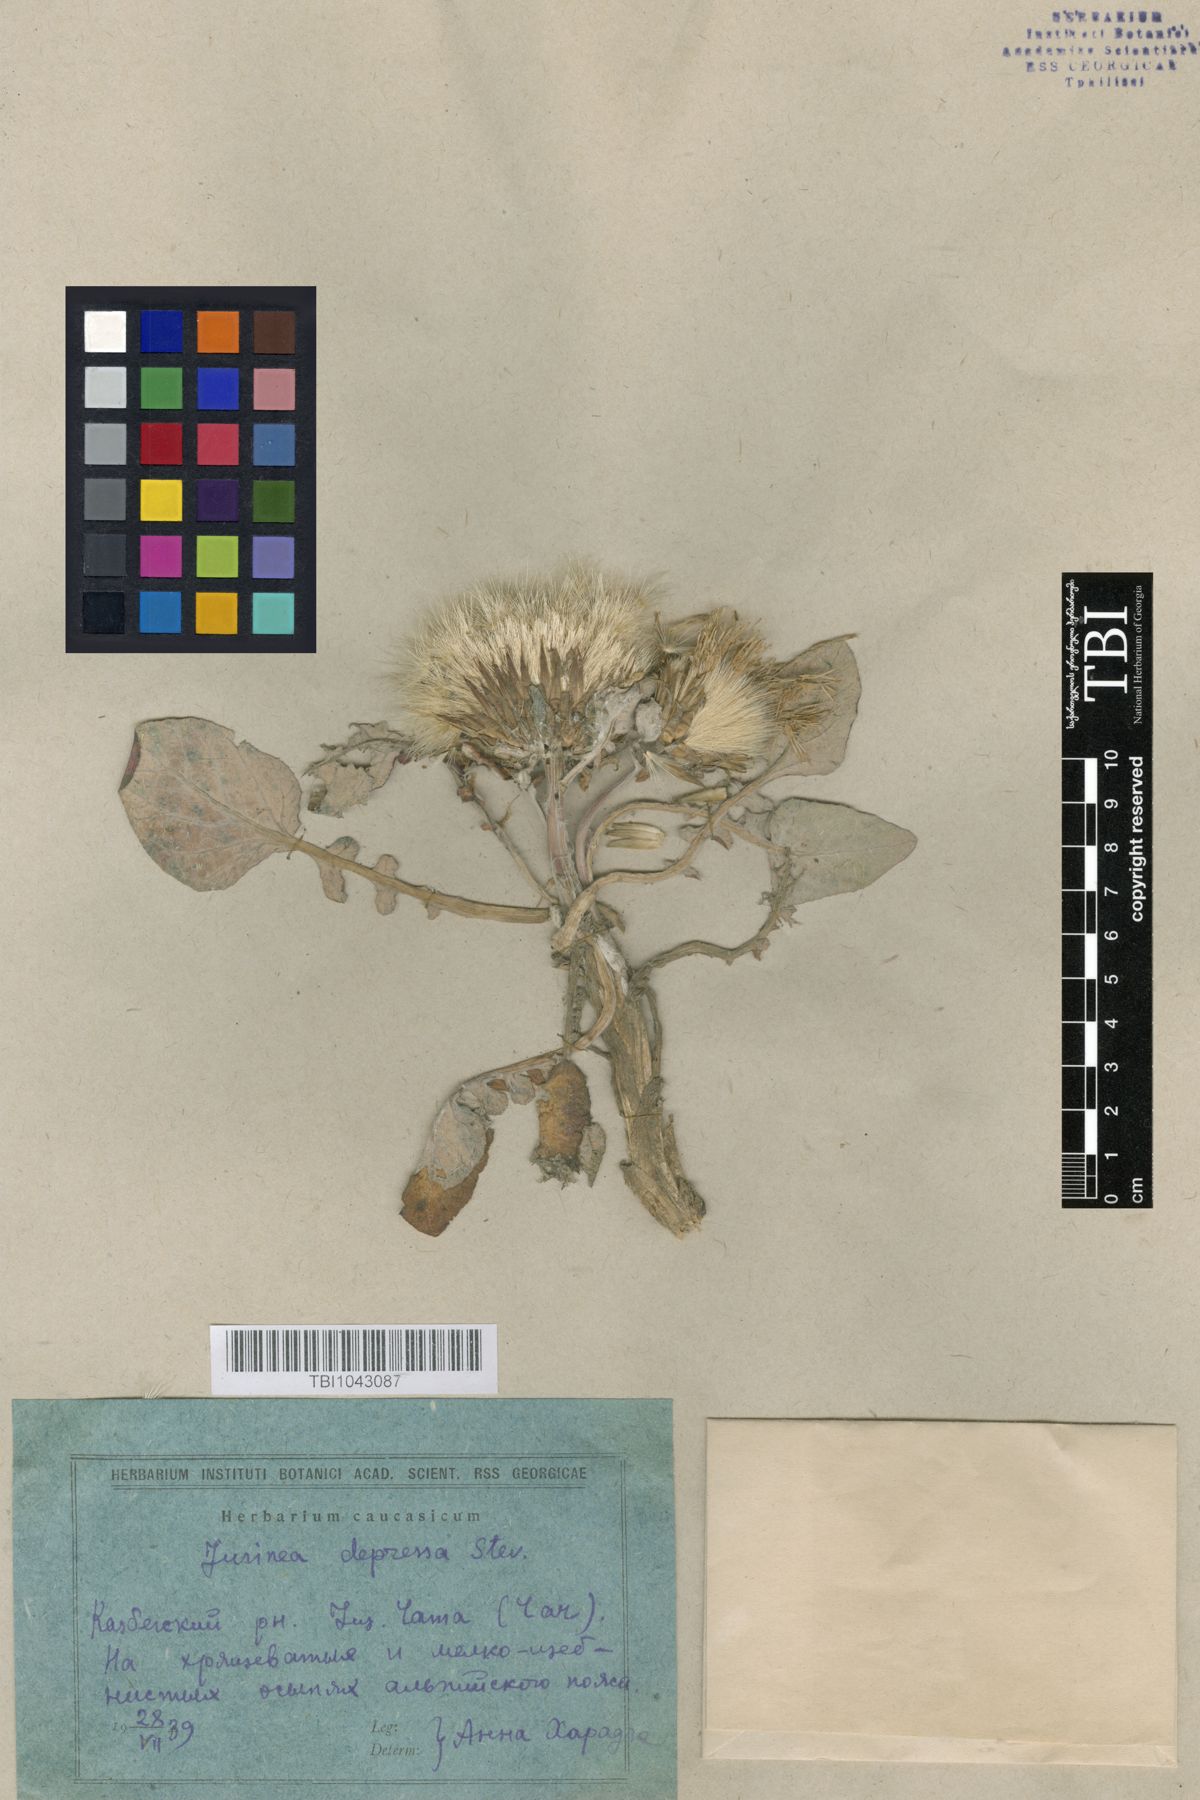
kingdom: Plantae
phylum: Tracheophyta
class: Magnoliopsida
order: Asterales
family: Asteraceae
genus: Jurinea
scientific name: Jurinea moschus
